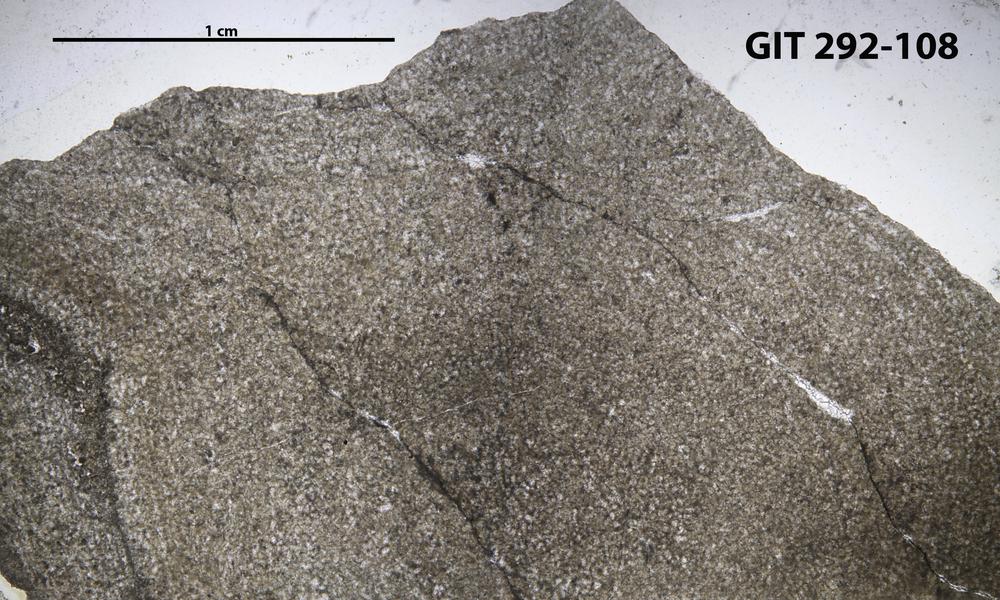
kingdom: Animalia
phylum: Porifera
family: Pseudolabechiidae
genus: Vikingia
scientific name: Vikingia
